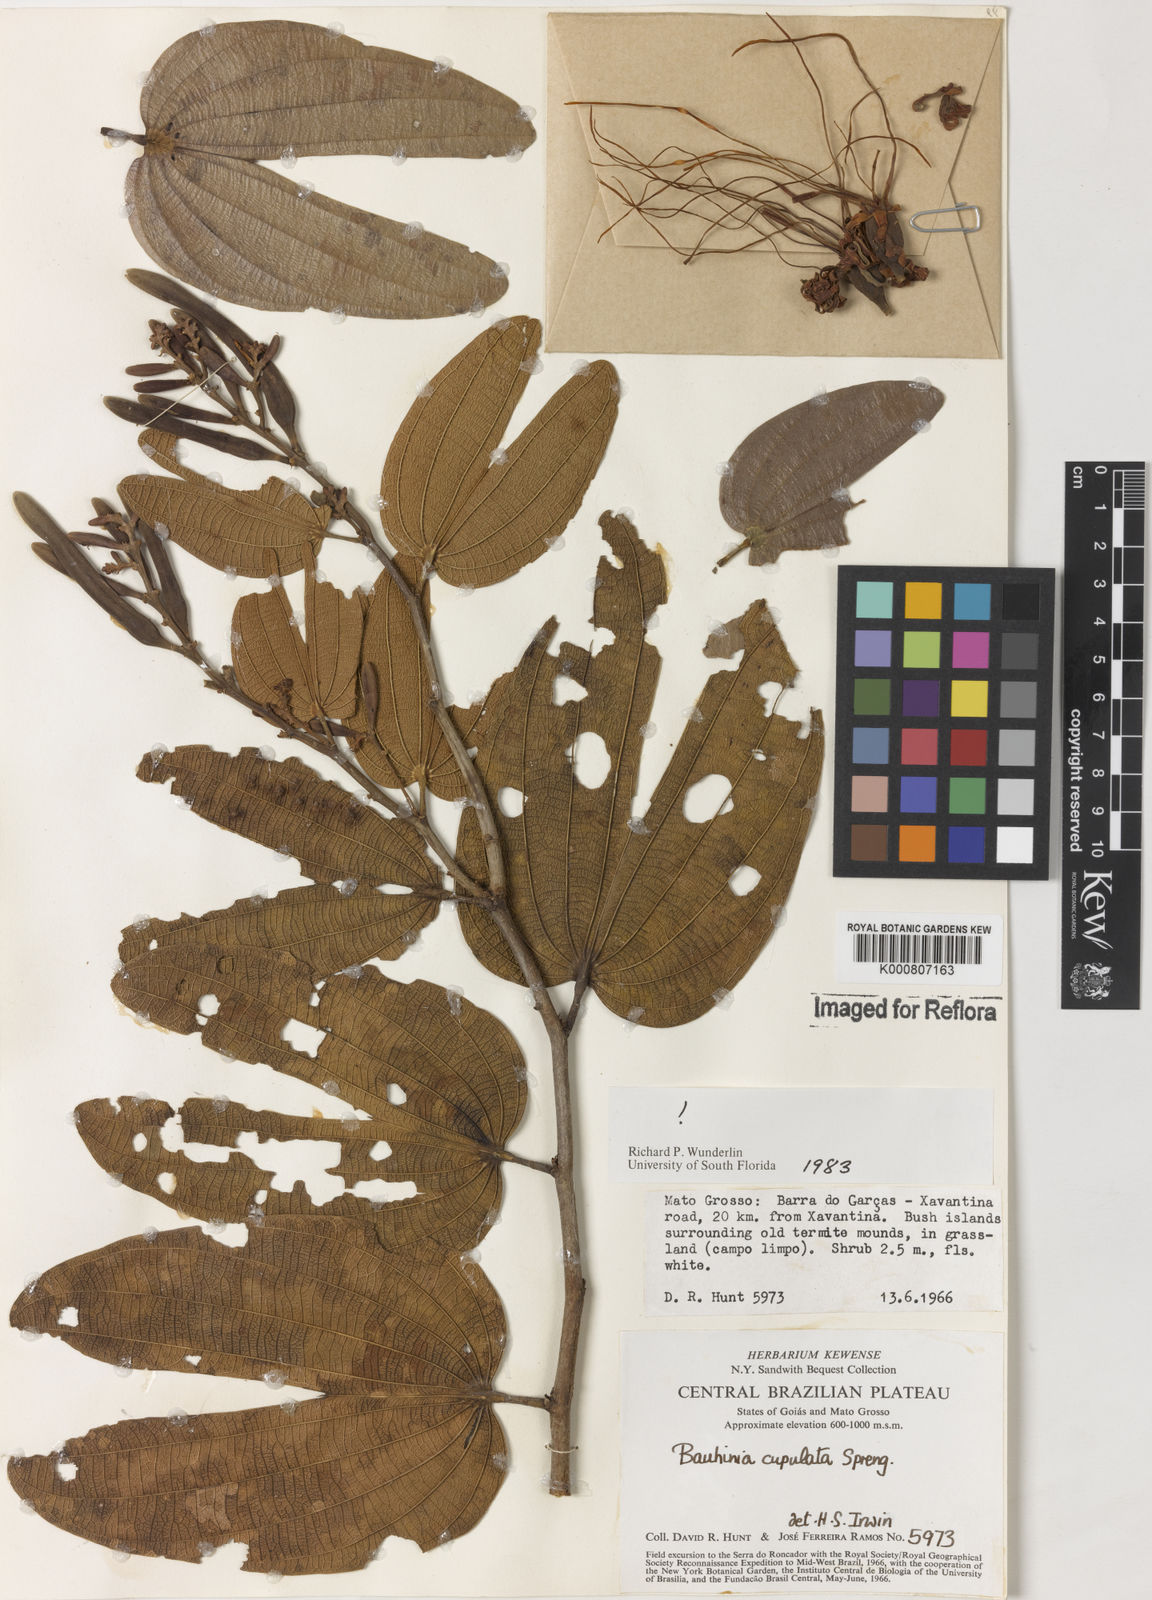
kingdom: Plantae
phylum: Tracheophyta
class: Magnoliopsida
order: Fabales
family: Fabaceae
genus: Bauhinia
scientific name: Bauhinia cupulata
